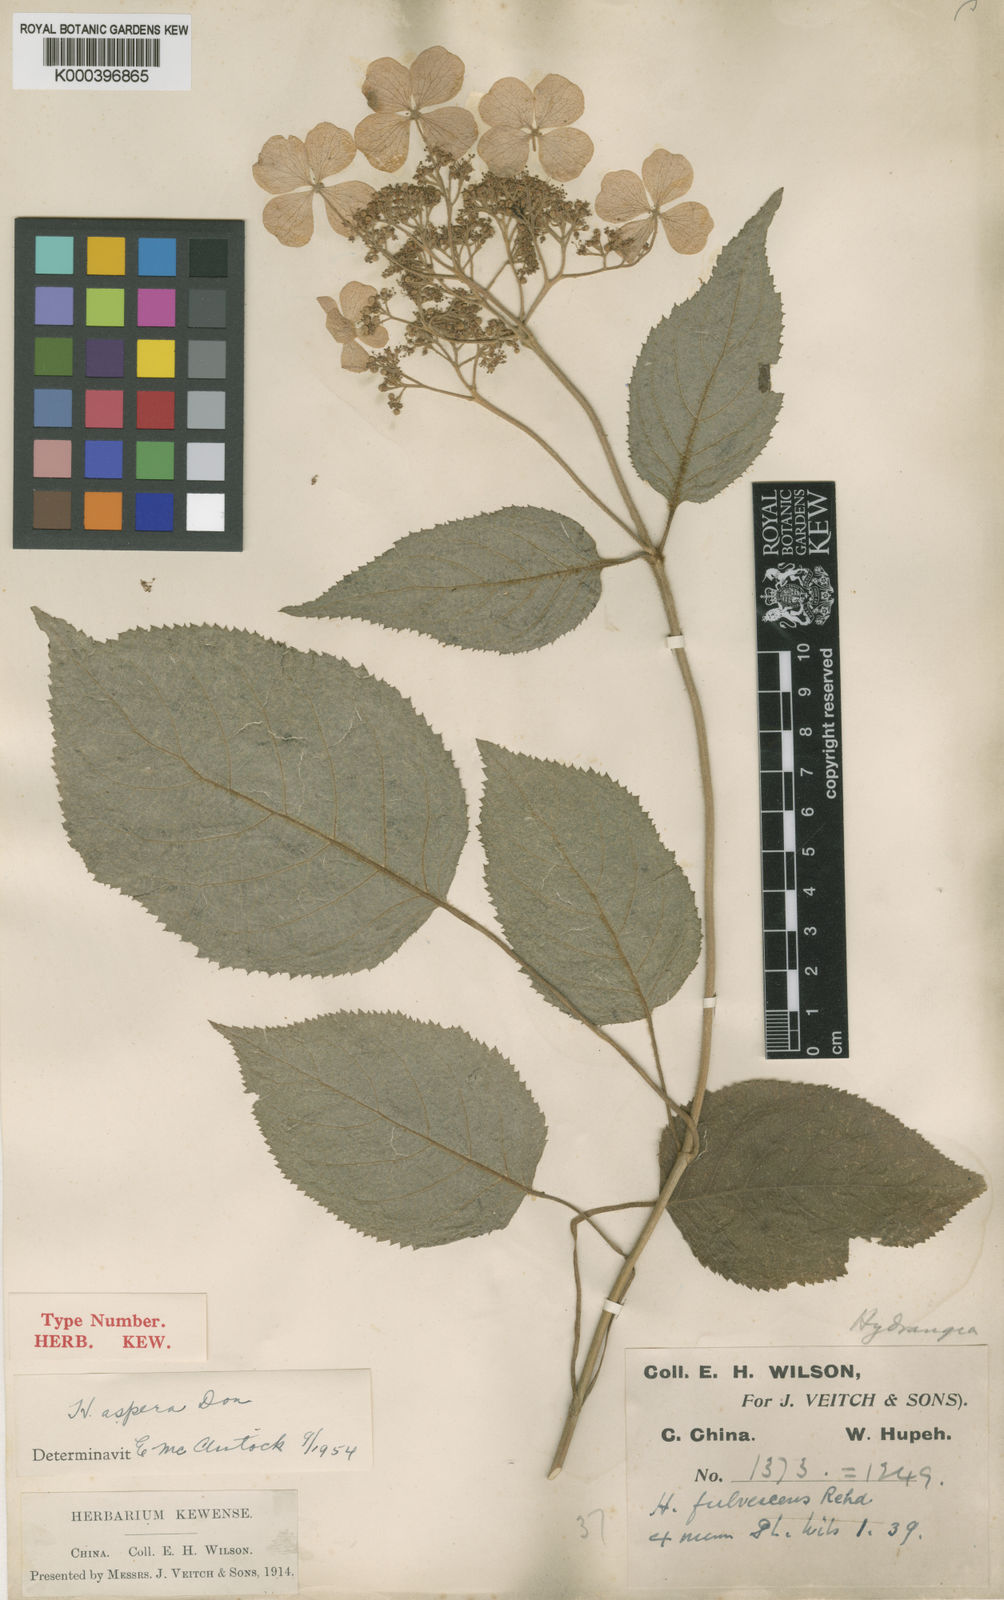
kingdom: Plantae
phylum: Tracheophyta
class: Magnoliopsida
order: Cornales
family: Hydrangeaceae
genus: Hydrangea
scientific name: Hydrangea aspera
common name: Rough-leaf hydrangea
